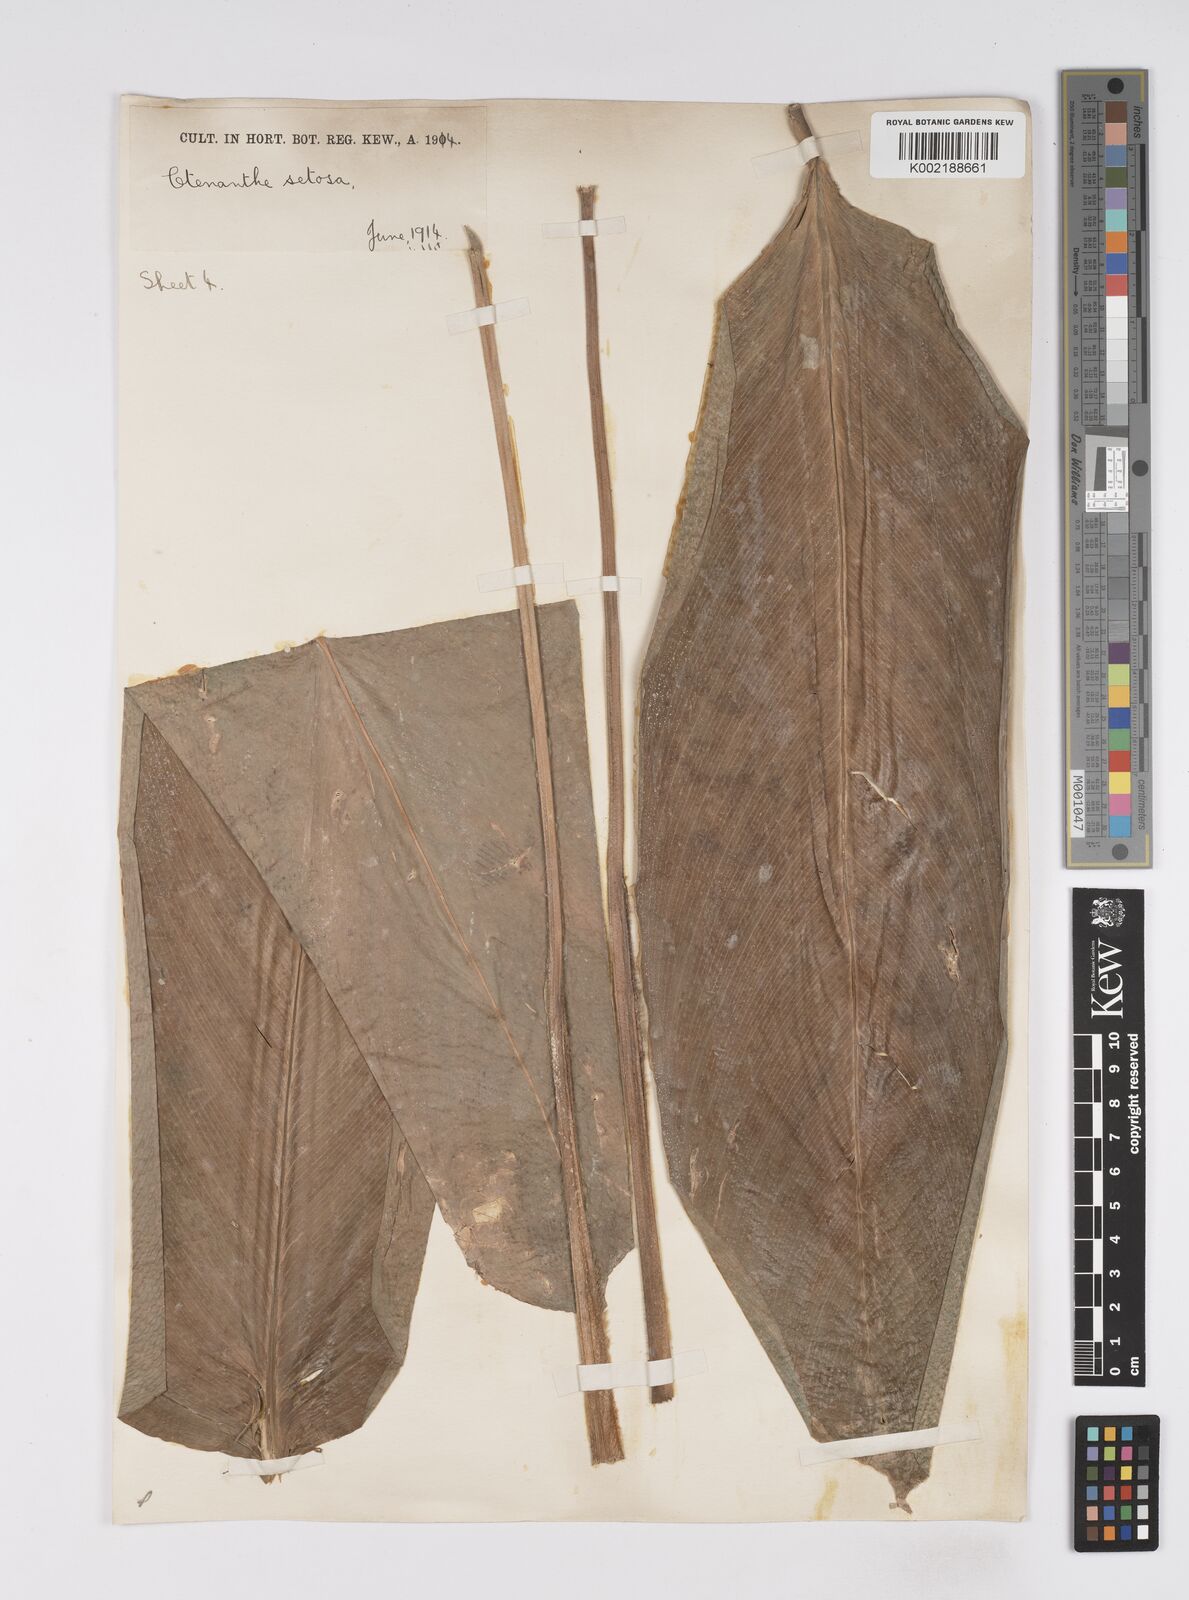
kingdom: Plantae
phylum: Tracheophyta
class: Liliopsida
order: Zingiberales
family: Marantaceae
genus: Ctenanthe
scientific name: Ctenanthe
